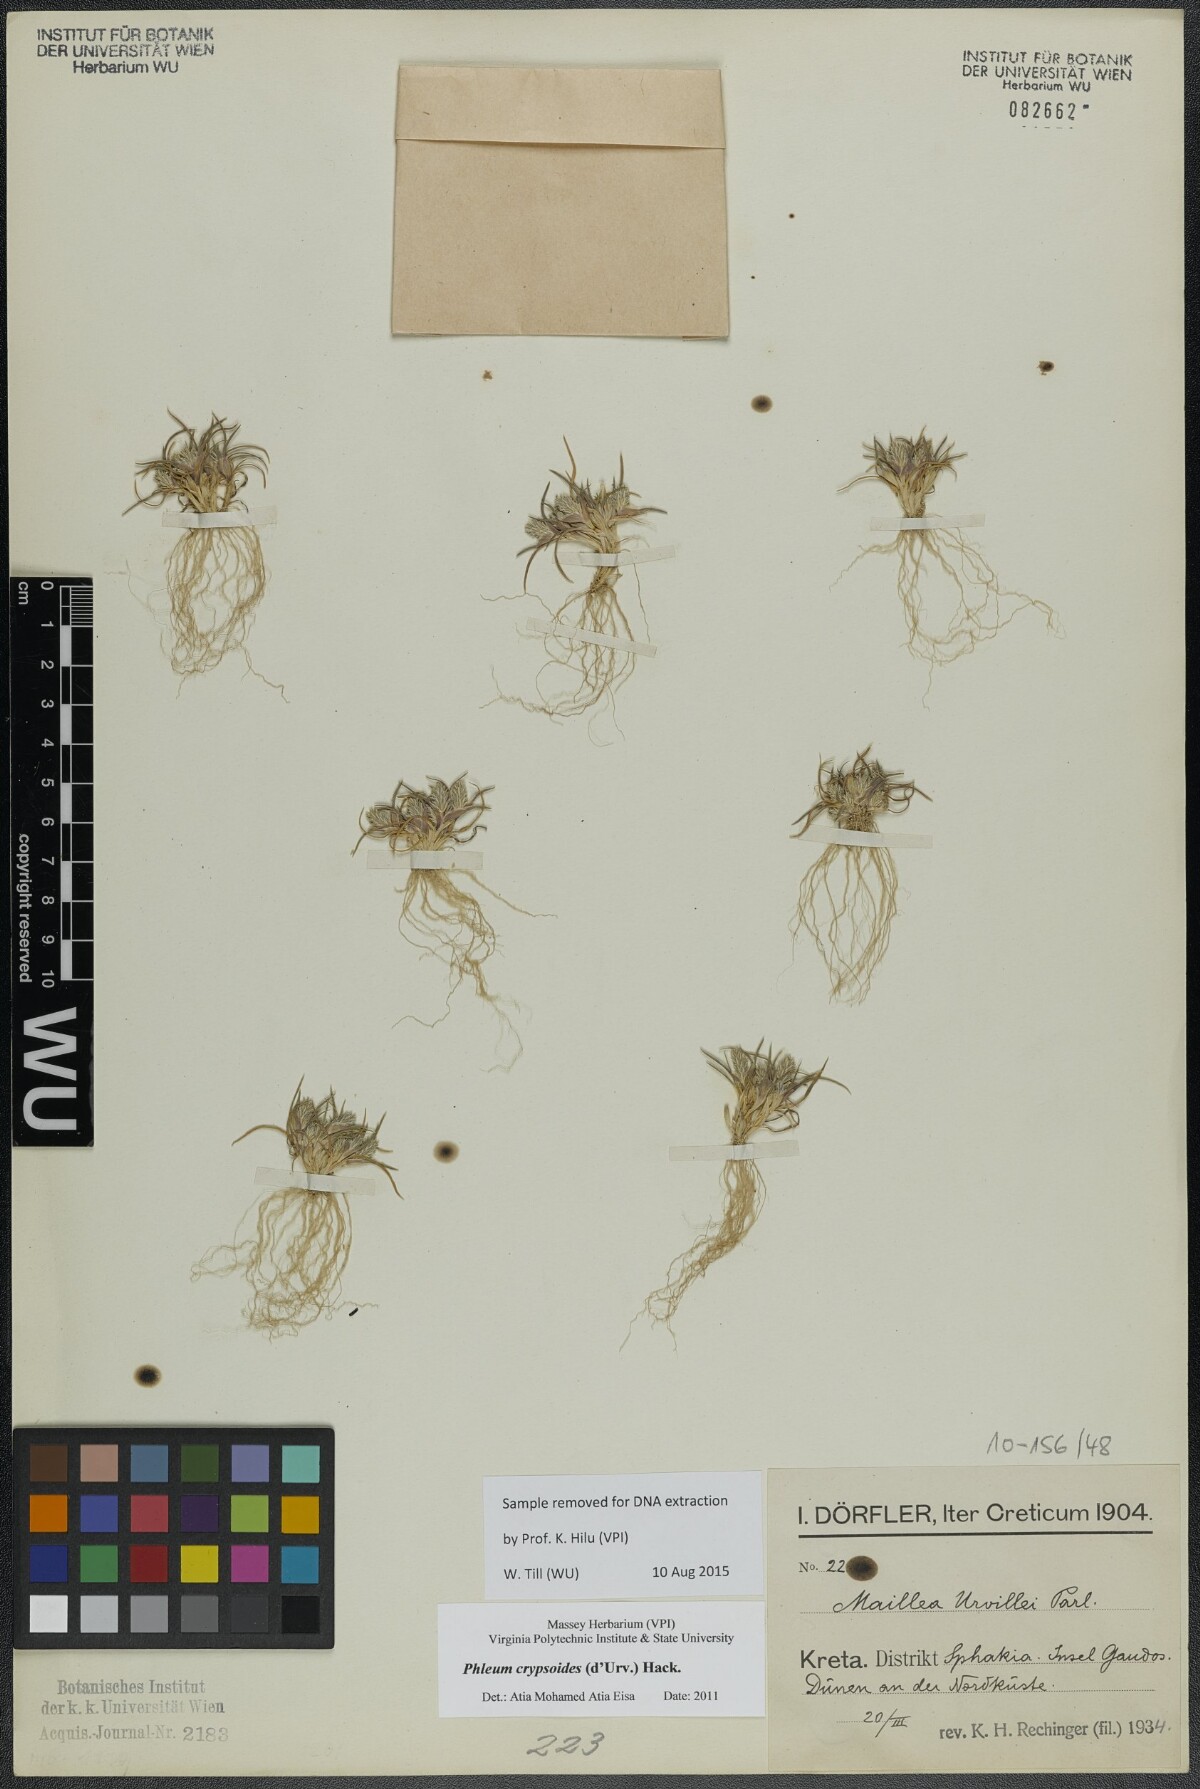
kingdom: Plantae
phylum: Tracheophyta
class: Liliopsida
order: Poales
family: Poaceae
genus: Phleum
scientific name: Phleum crypsoides
